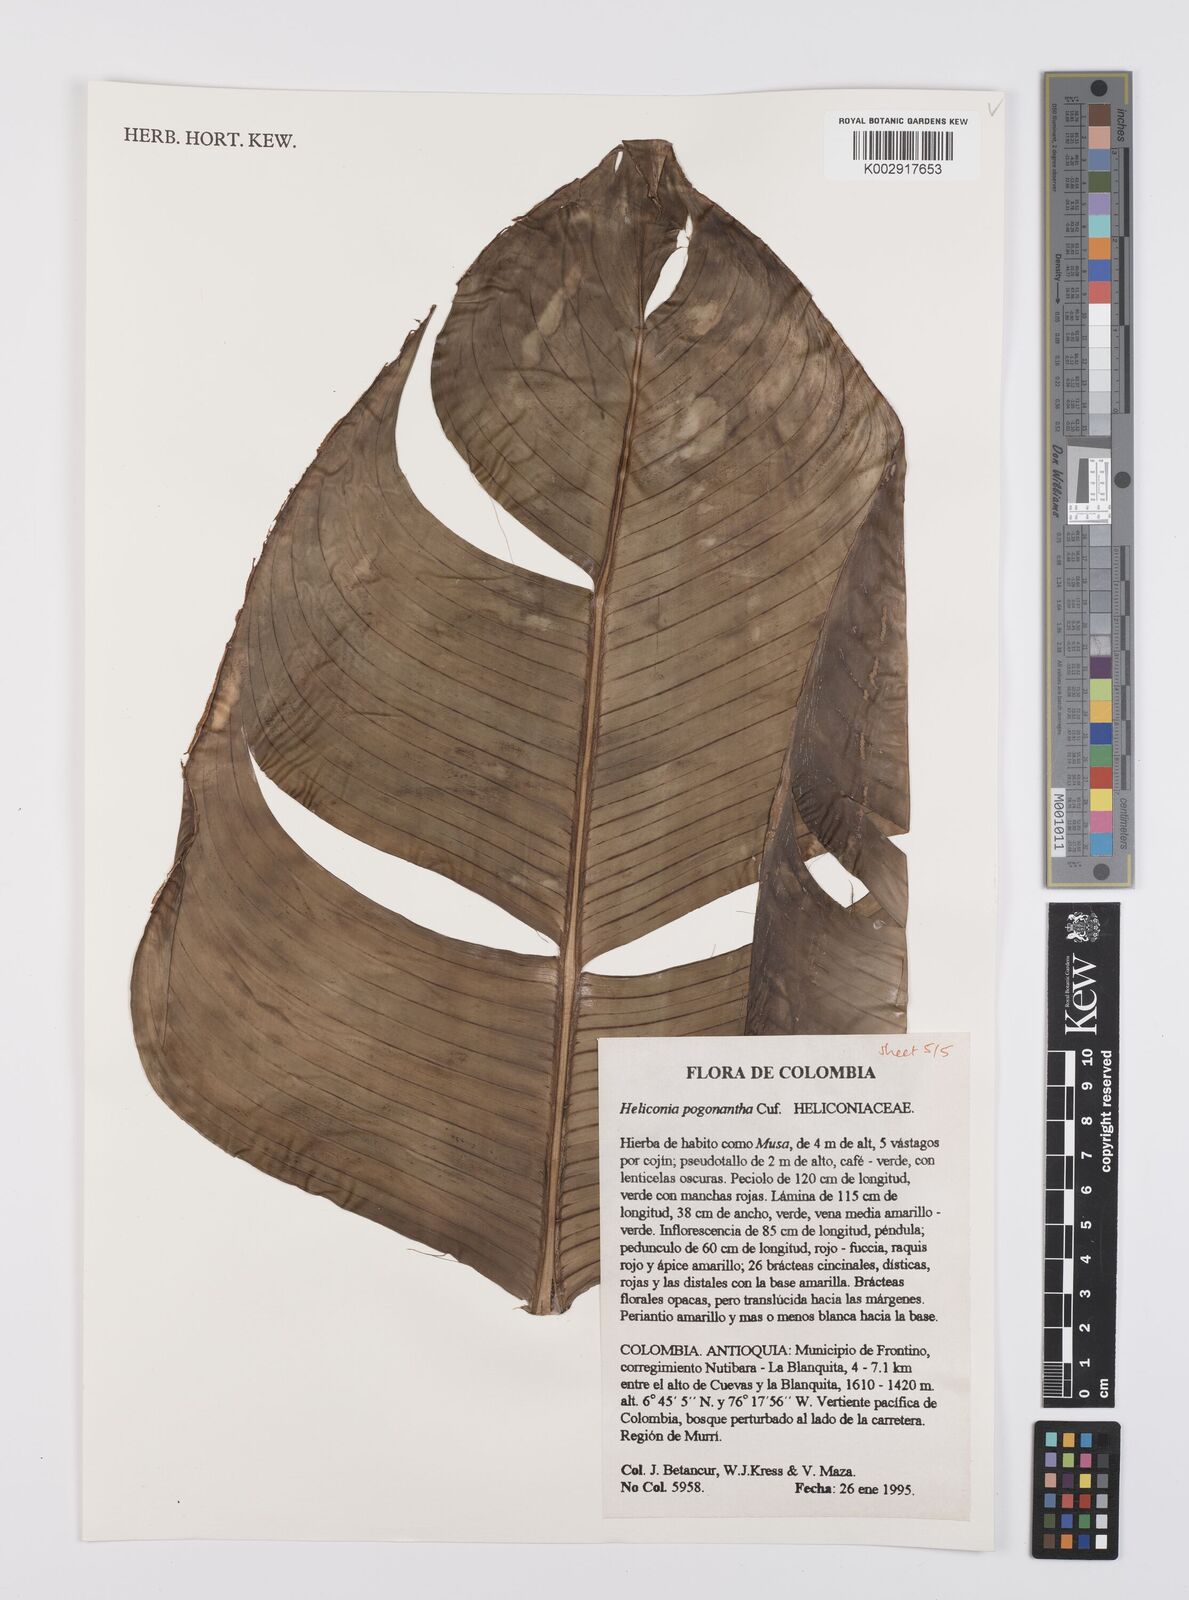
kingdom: Plantae
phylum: Tracheophyta
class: Liliopsida
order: Zingiberales
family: Heliconiaceae
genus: Heliconia
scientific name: Heliconia pogonantha
